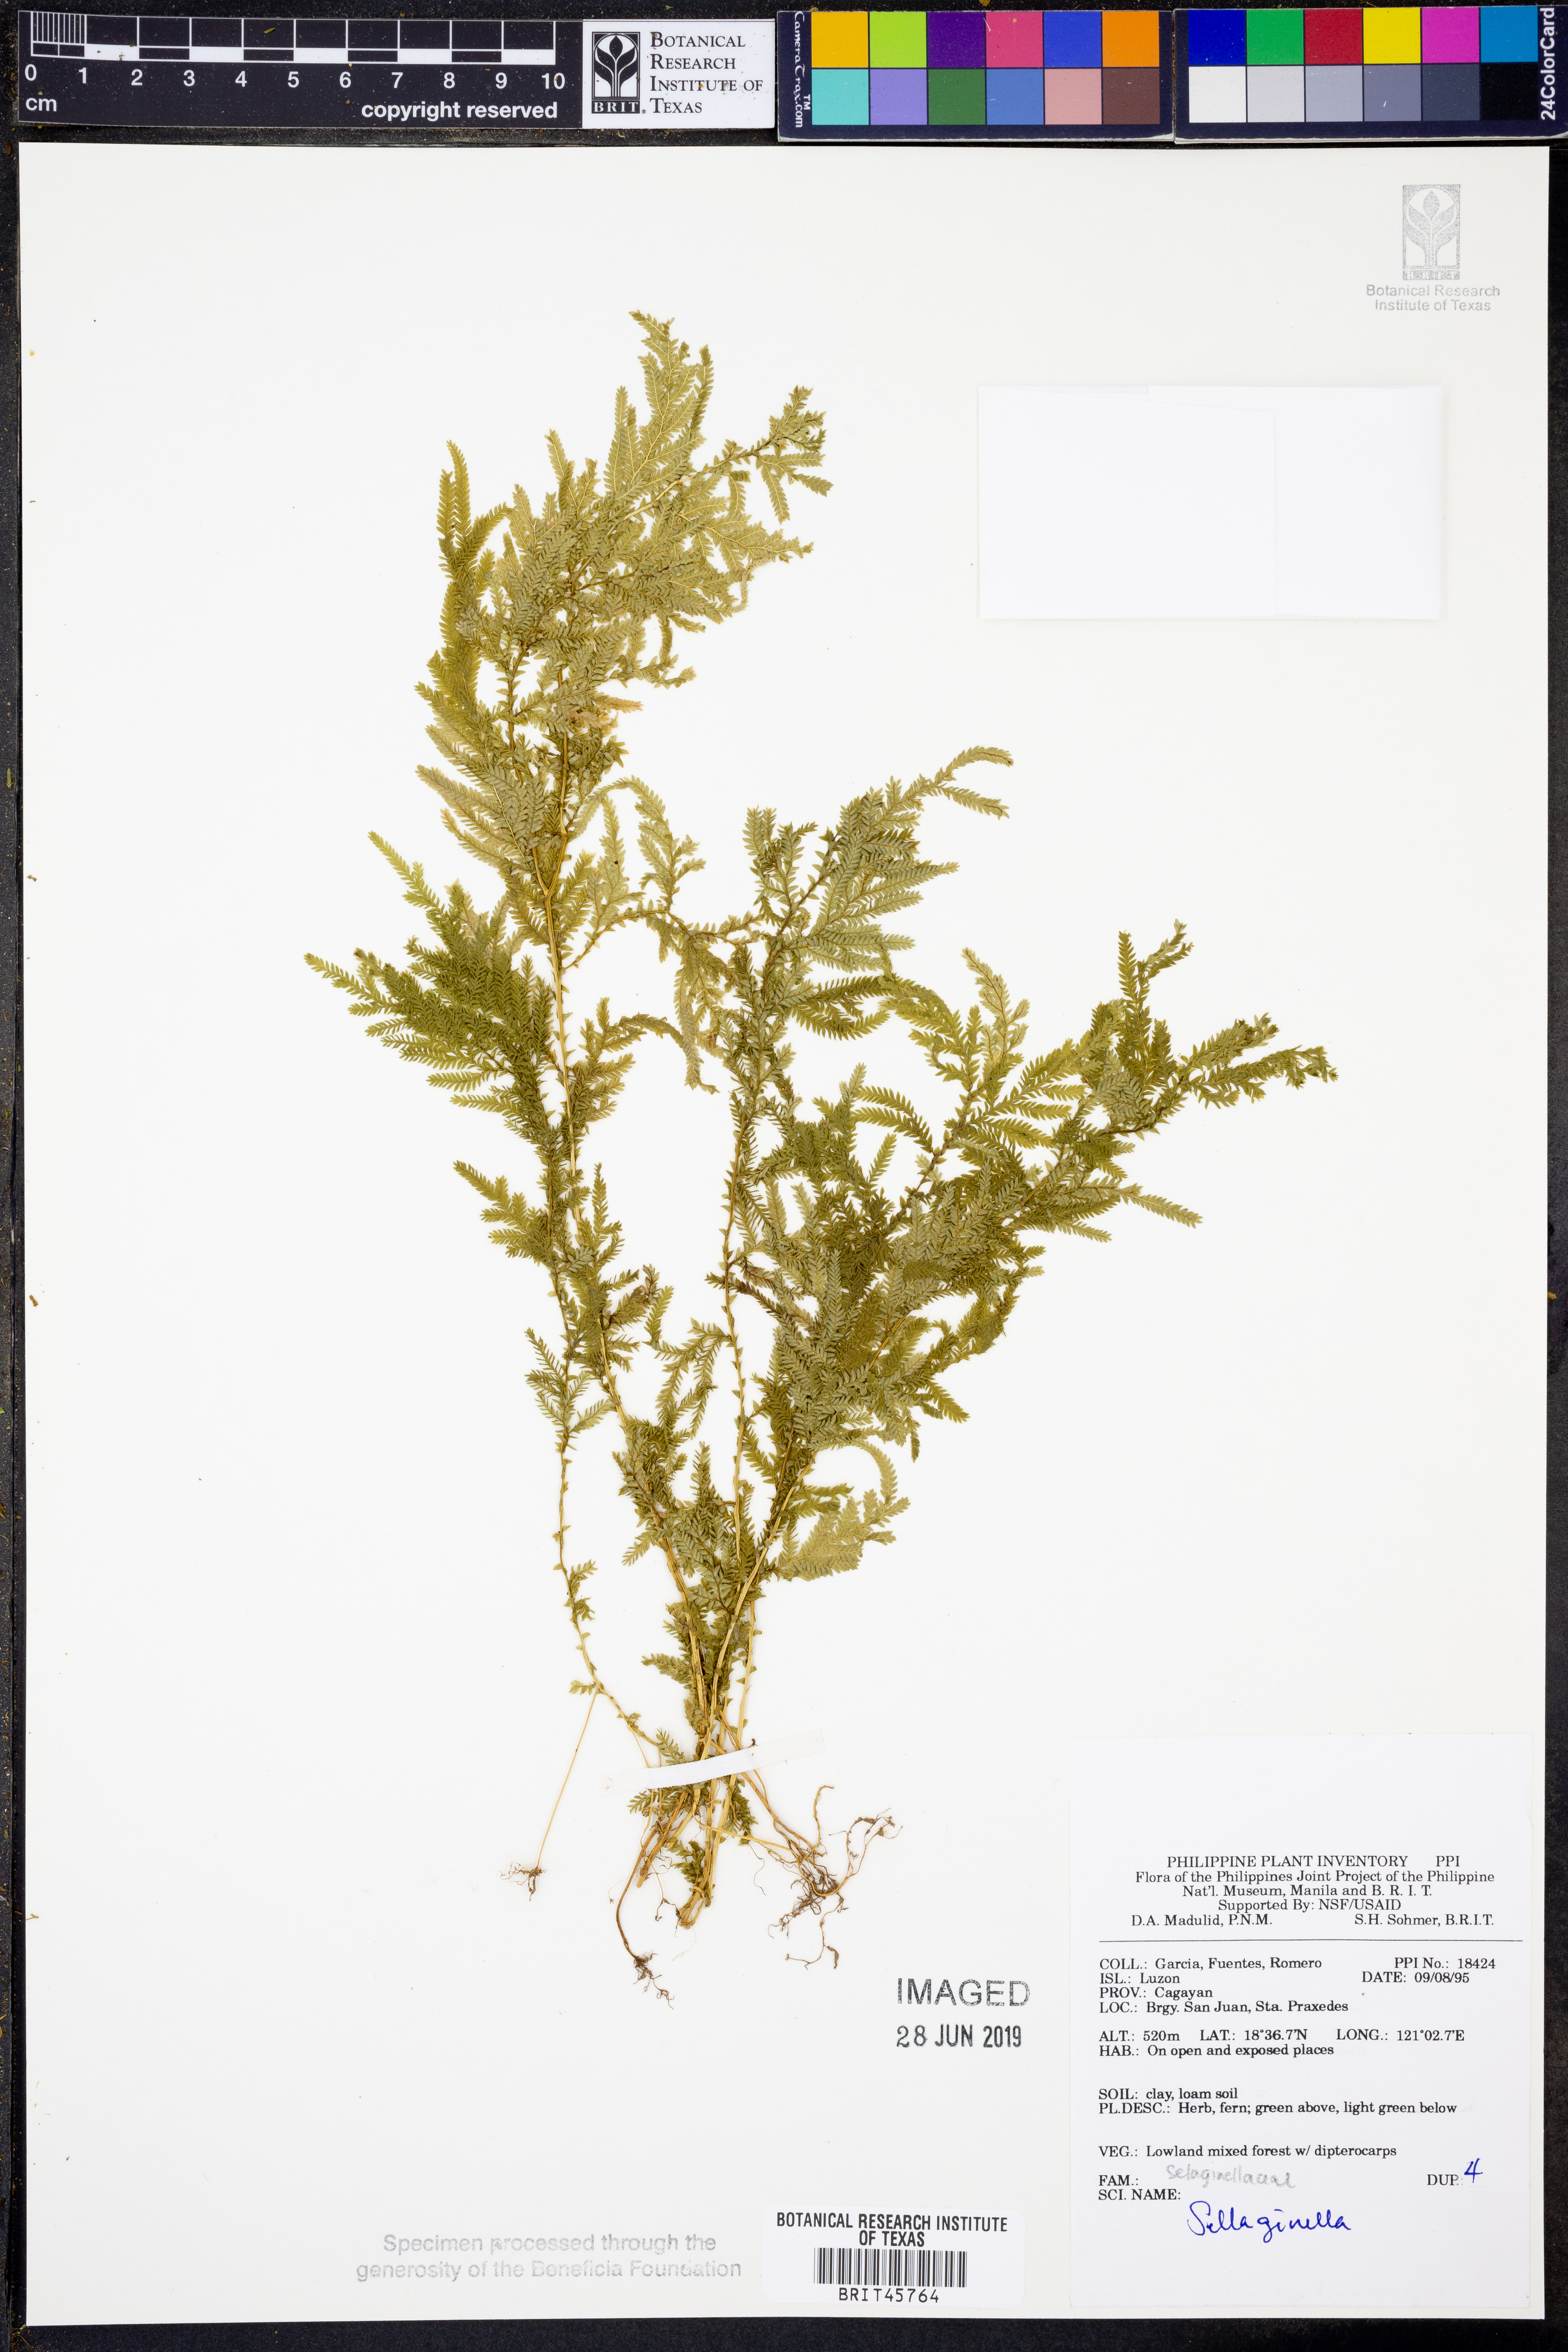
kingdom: Plantae
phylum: Tracheophyta
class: Lycopodiopsida
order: Selaginellales
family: Selaginellaceae
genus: Selaginella
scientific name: Selaginella
